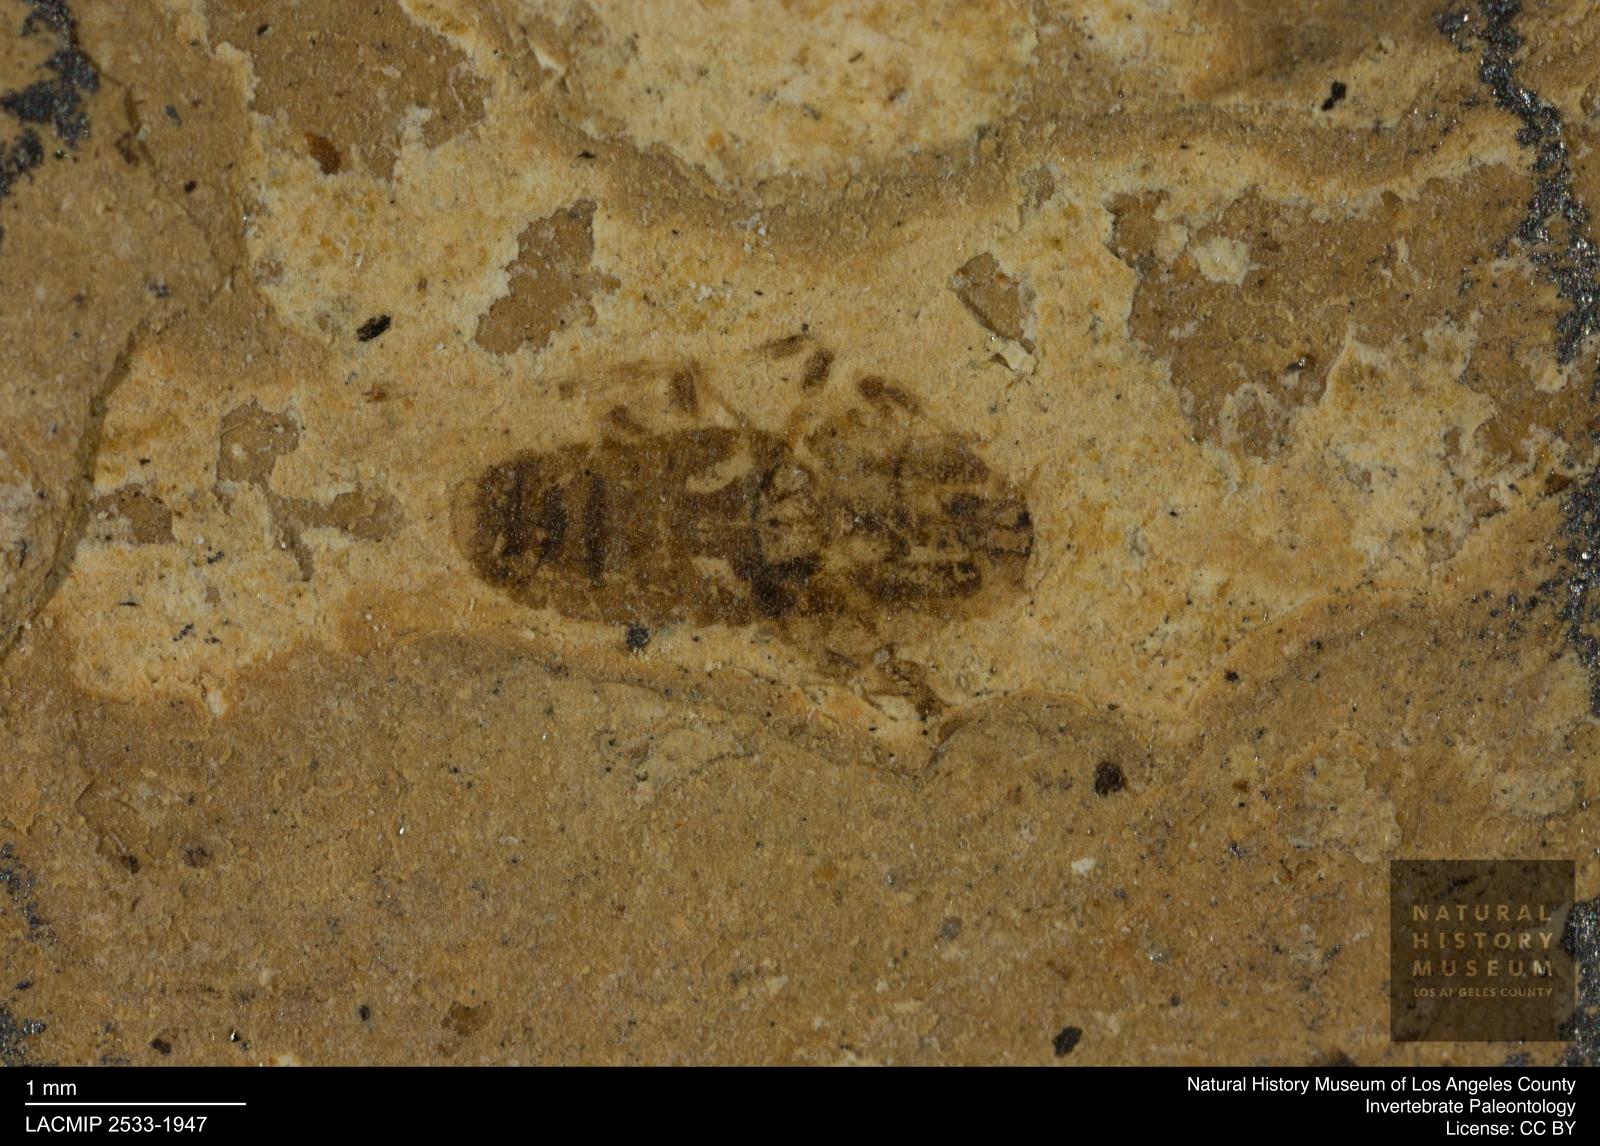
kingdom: Animalia
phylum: Arthropoda
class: Insecta
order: Hemiptera
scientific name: Hemiptera
